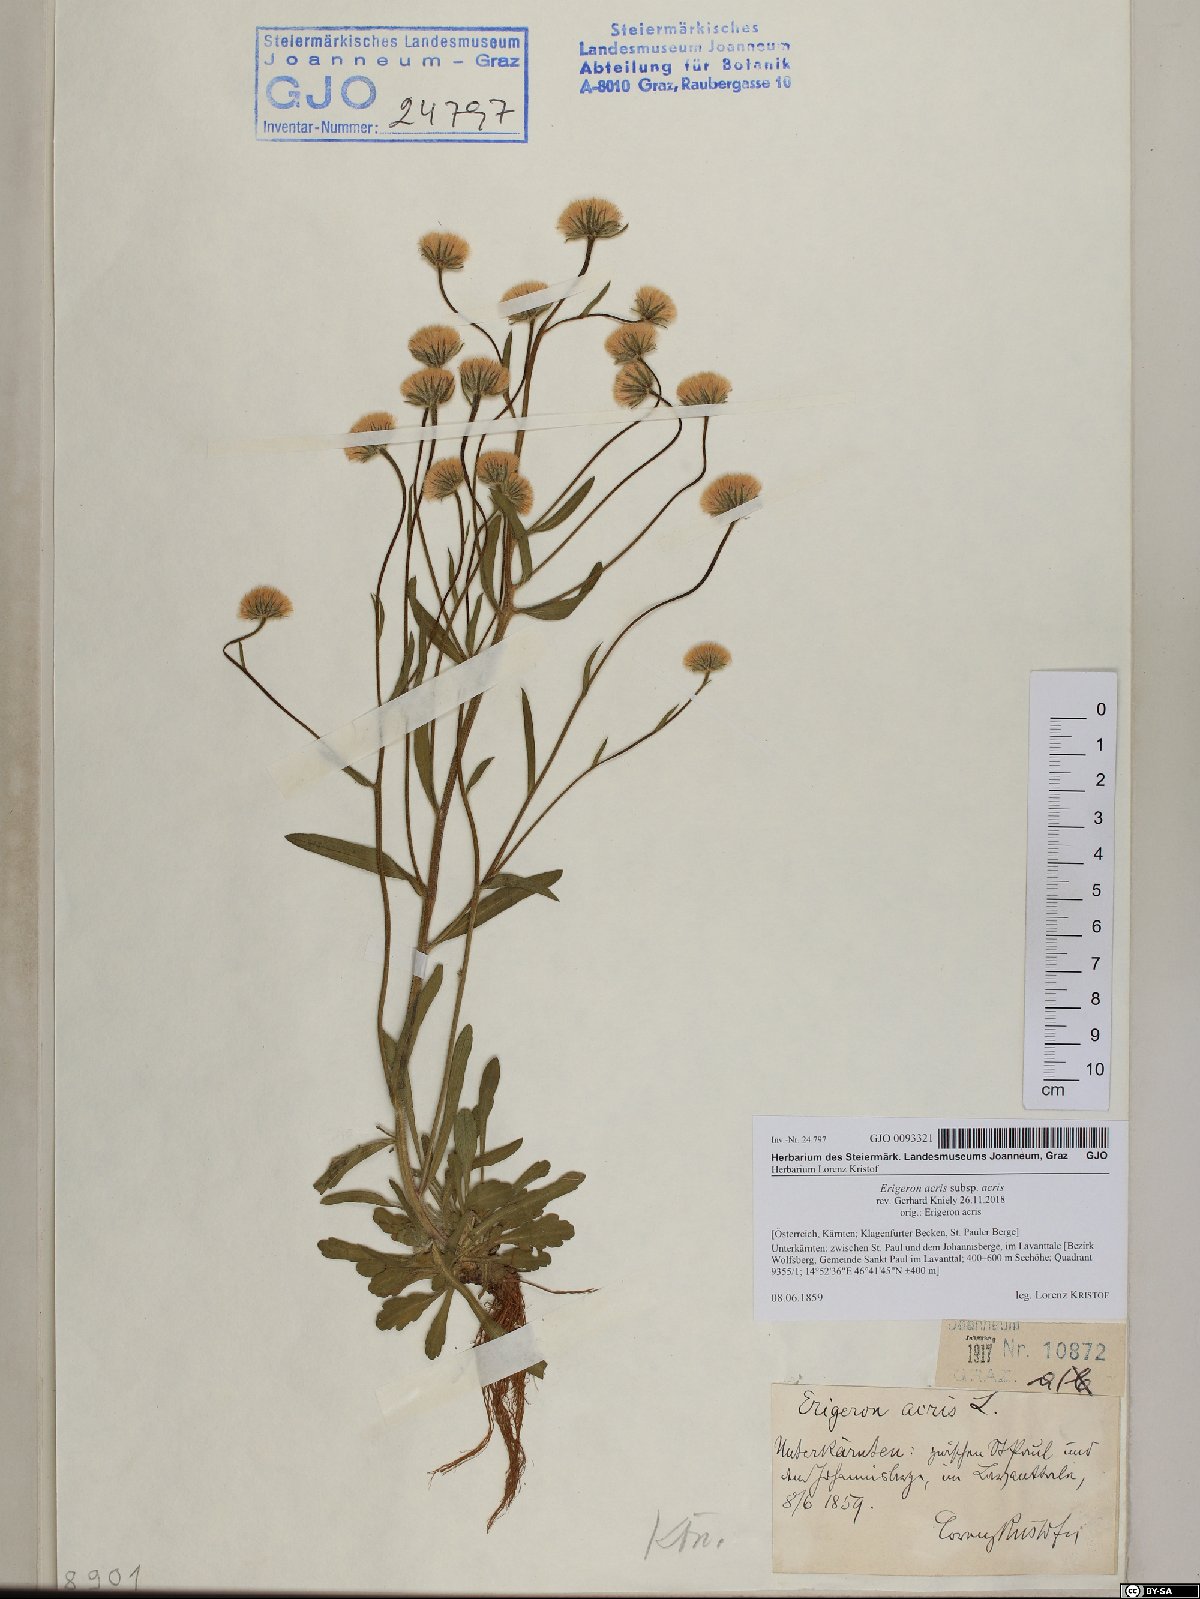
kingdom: Plantae
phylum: Tracheophyta
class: Magnoliopsida
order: Asterales
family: Asteraceae
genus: Erigeron
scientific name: Erigeron acris
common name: Blue fleabane
